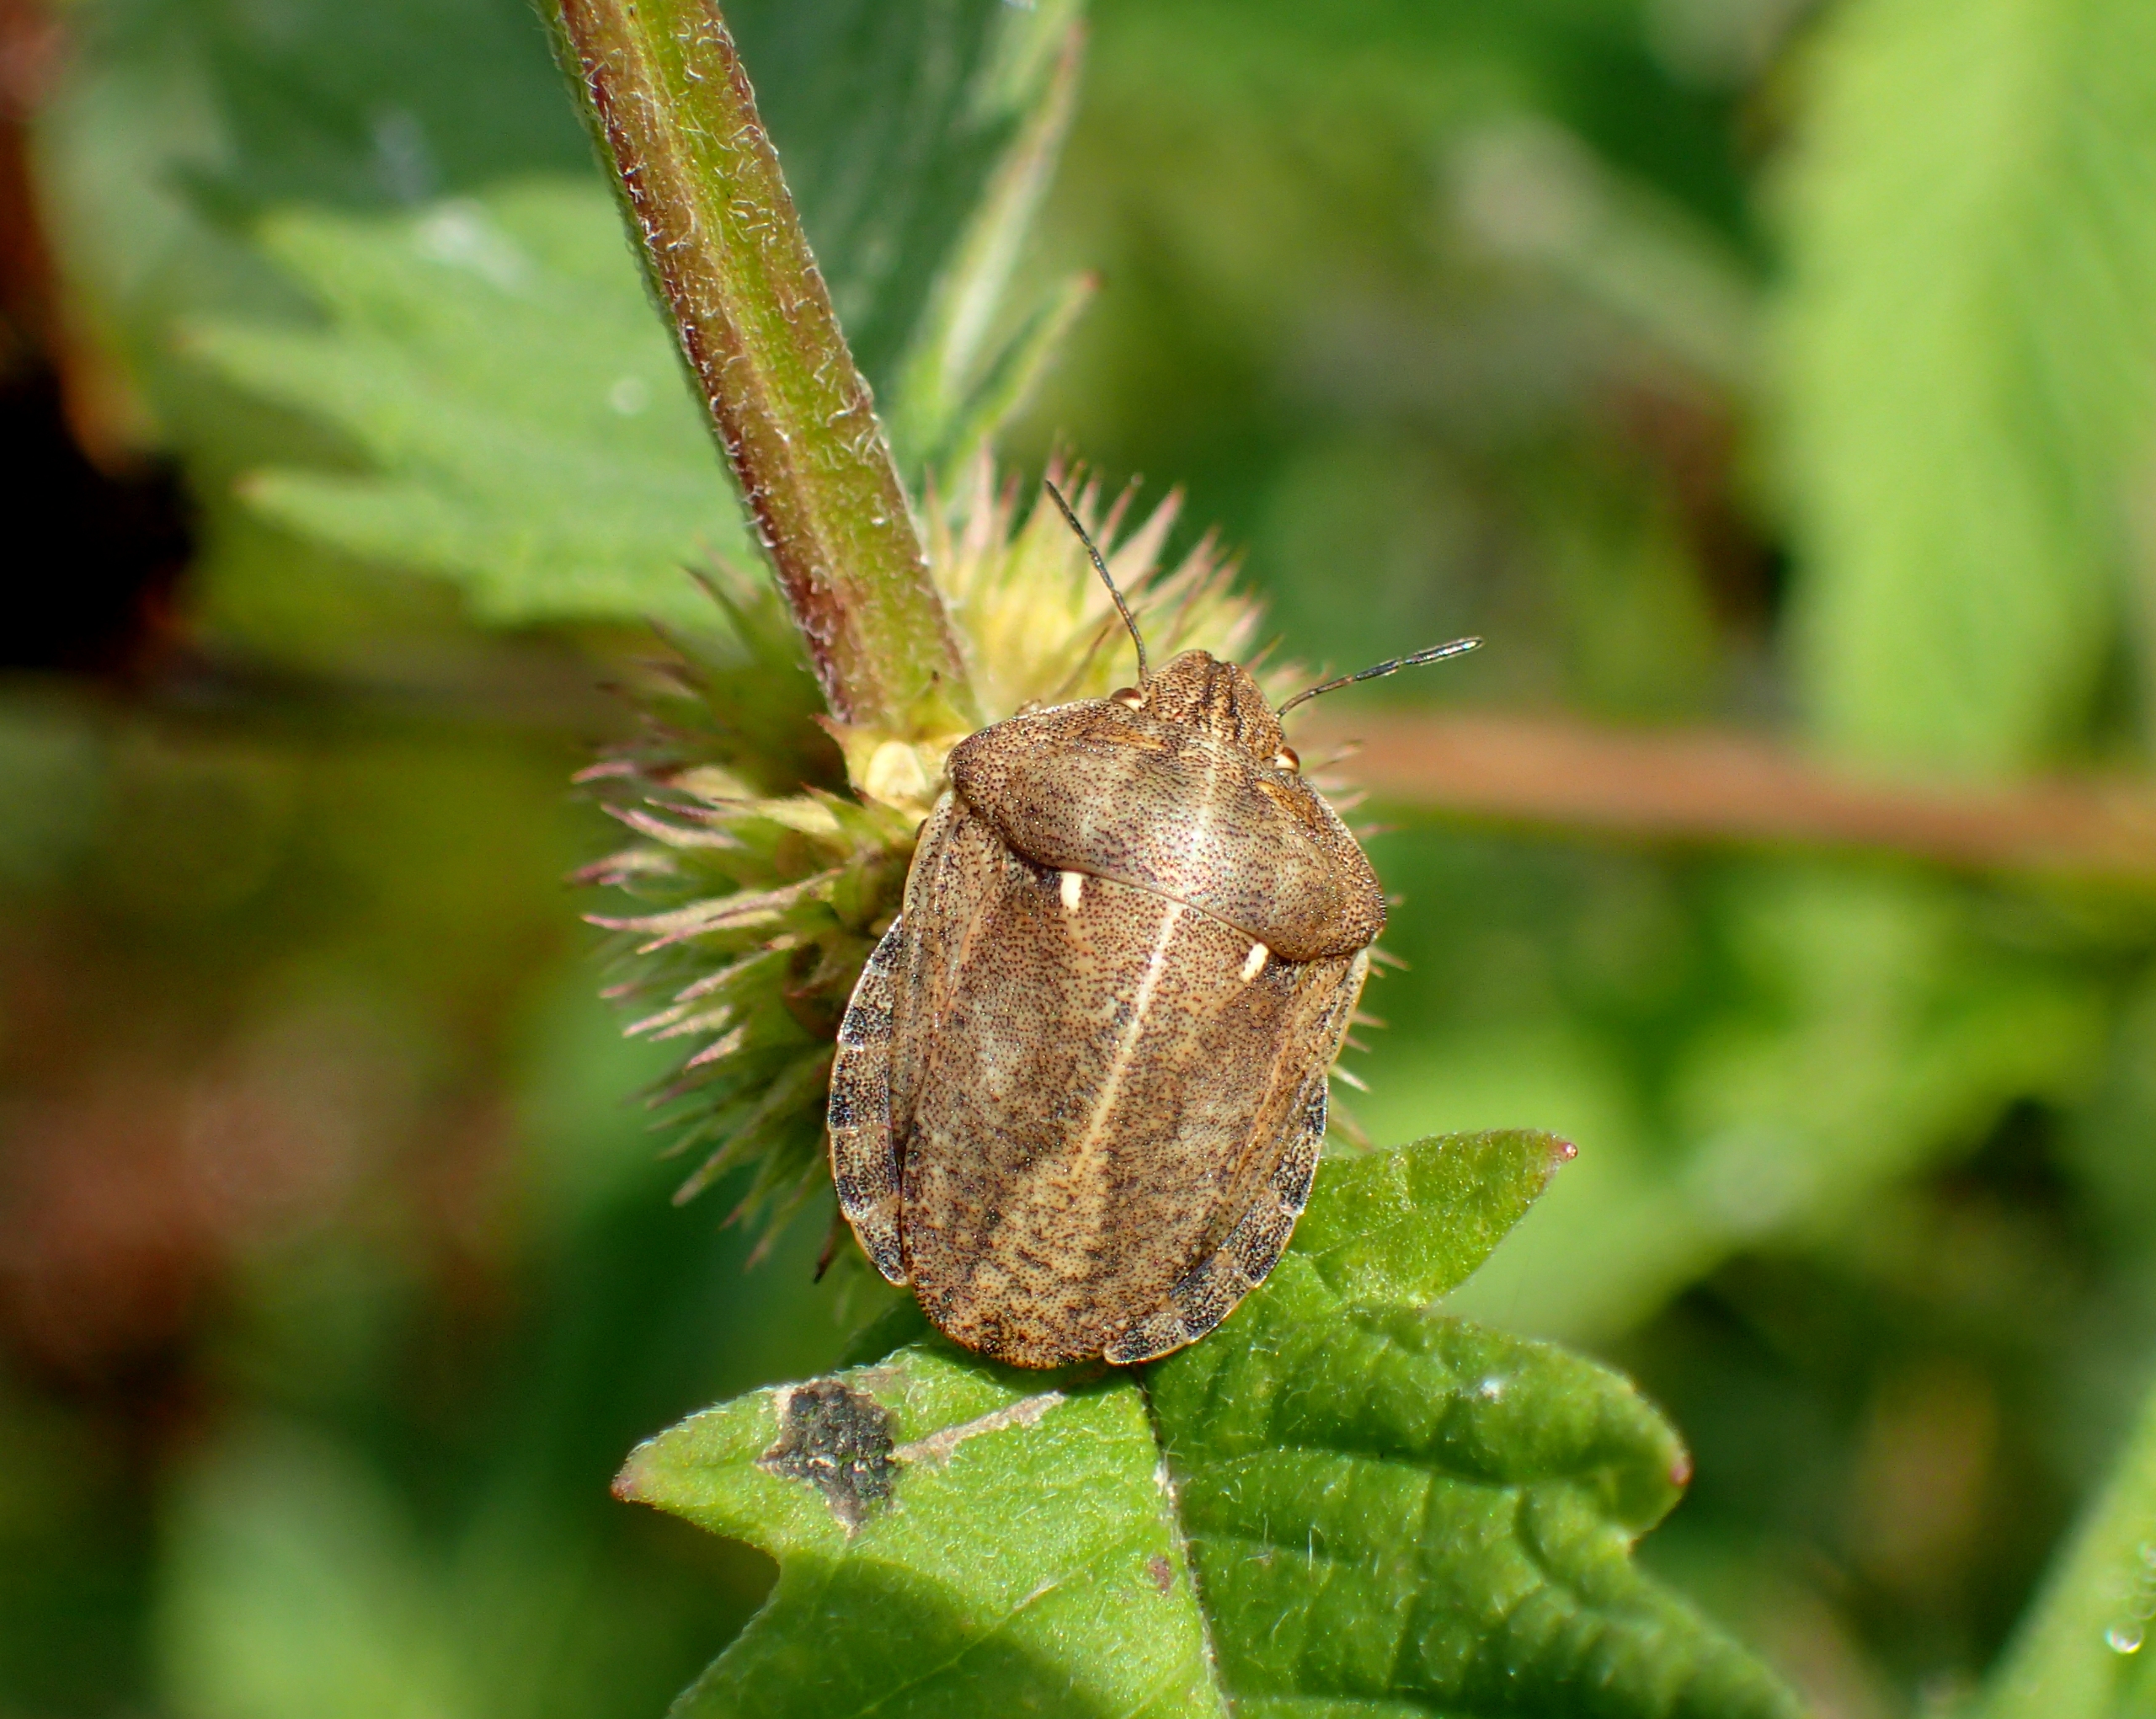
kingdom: Animalia
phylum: Arthropoda
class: Insecta
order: Hemiptera
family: Scutelleridae
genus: Eurygaster
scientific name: Eurygaster testudinaria
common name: Starskjoldtæge
